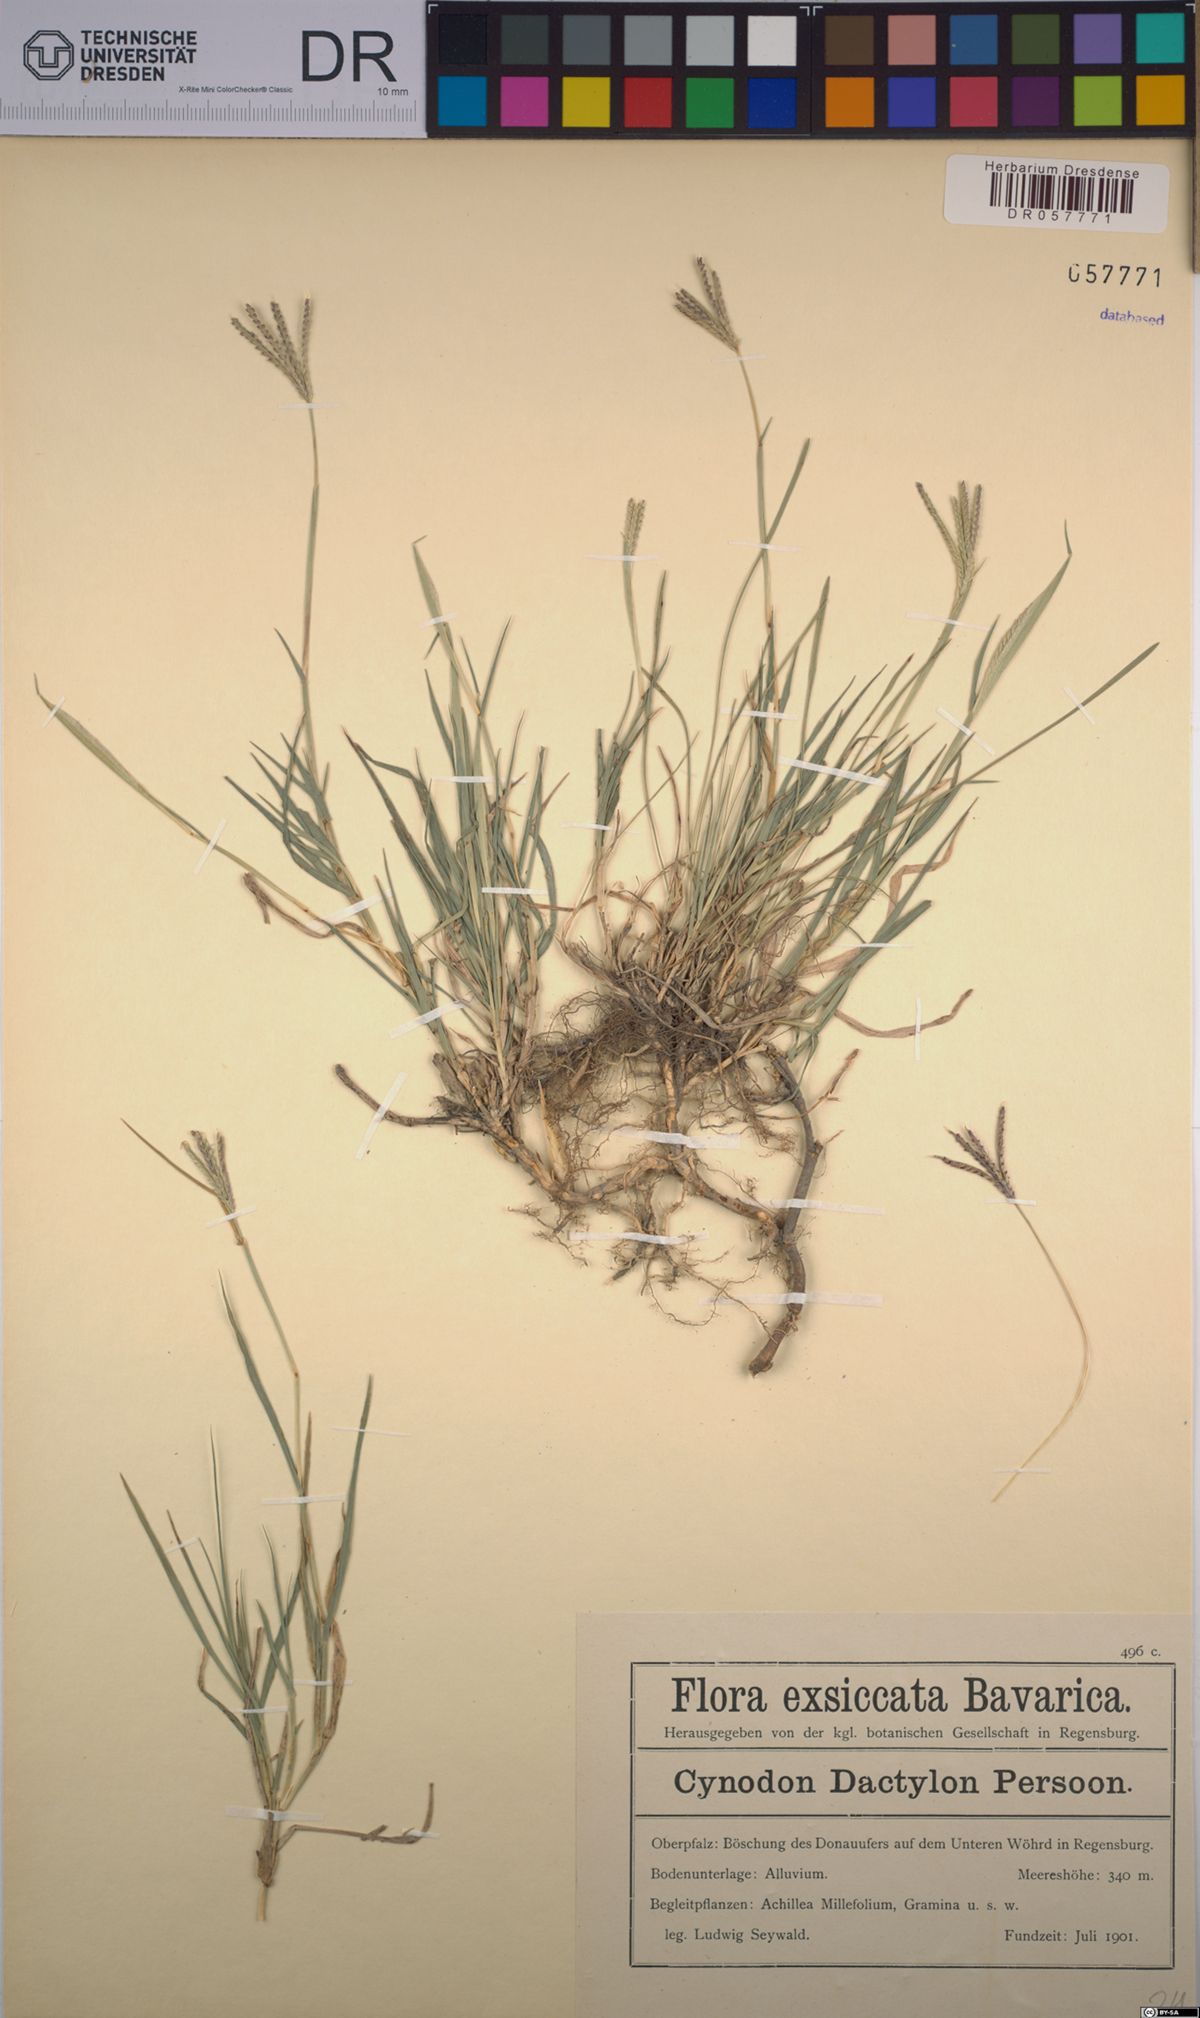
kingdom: Plantae
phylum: Tracheophyta
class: Liliopsida
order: Poales
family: Poaceae
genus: Cynodon
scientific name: Cynodon dactylon
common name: Bermuda grass
